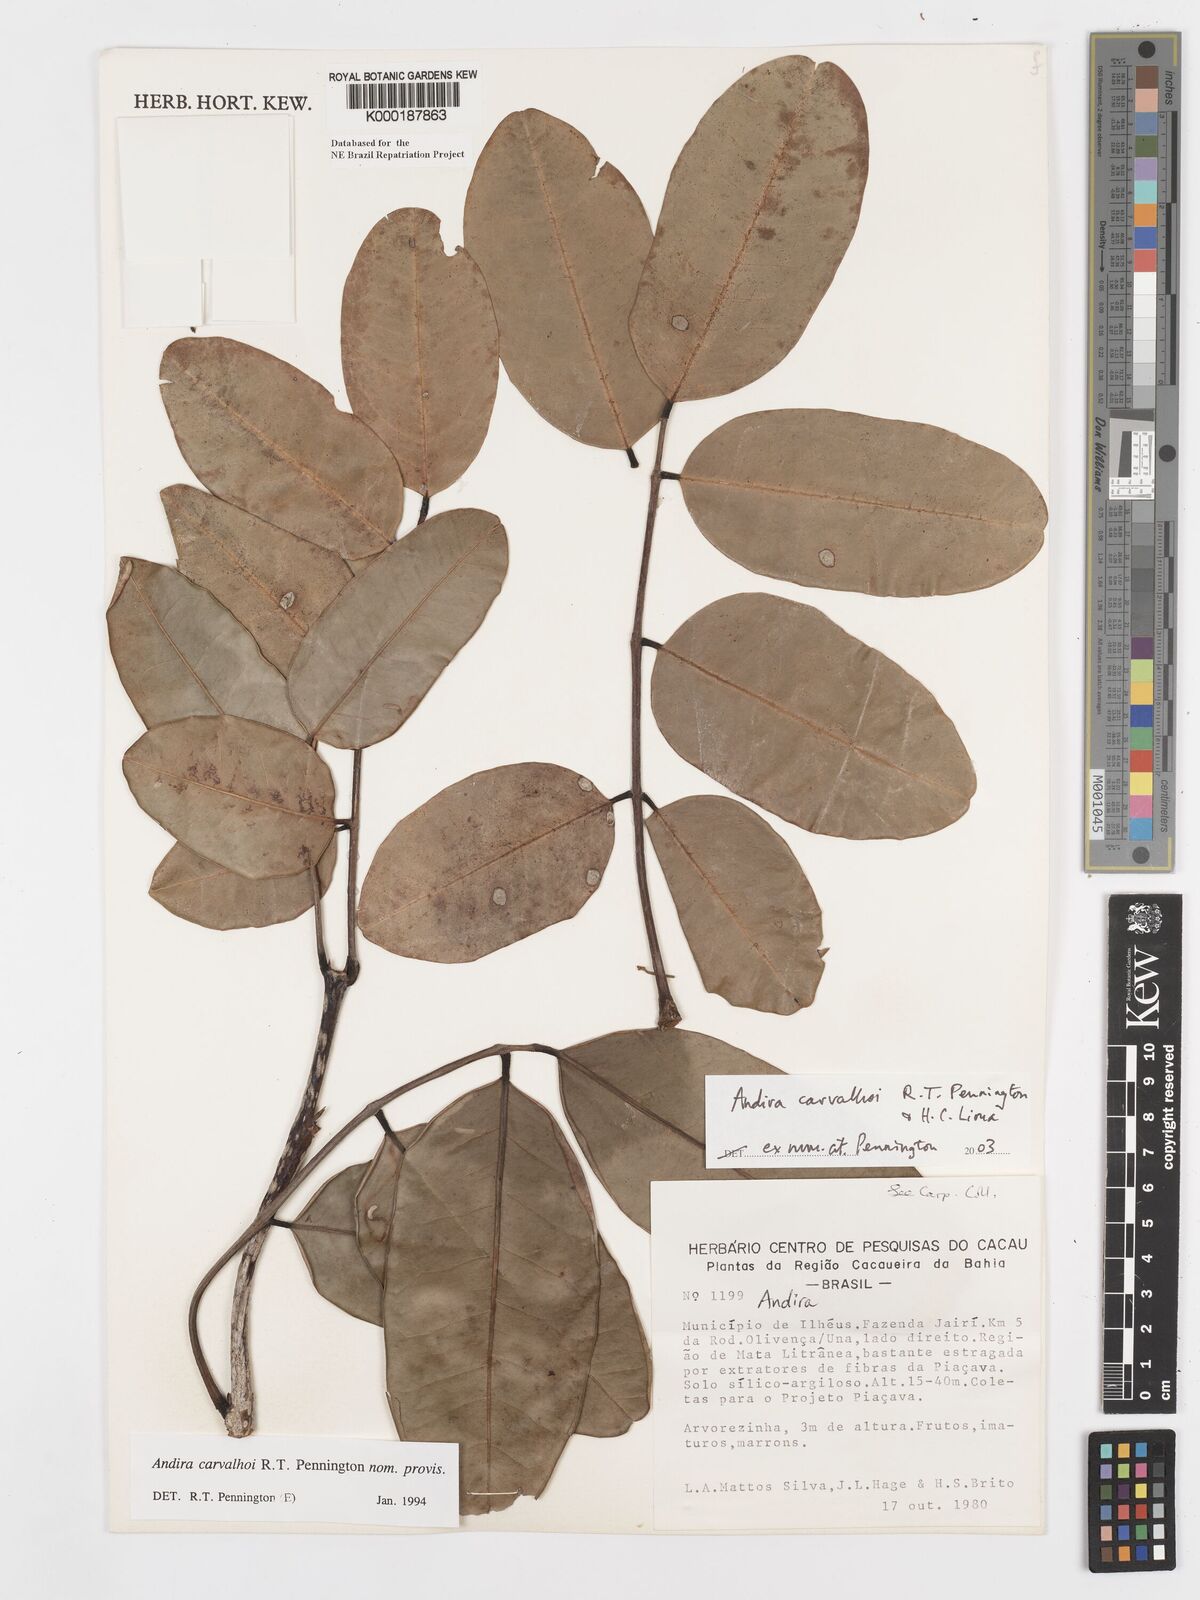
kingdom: Plantae
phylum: Tracheophyta
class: Magnoliopsida
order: Fabales
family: Fabaceae
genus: Andira
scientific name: Andira carvalhoi
